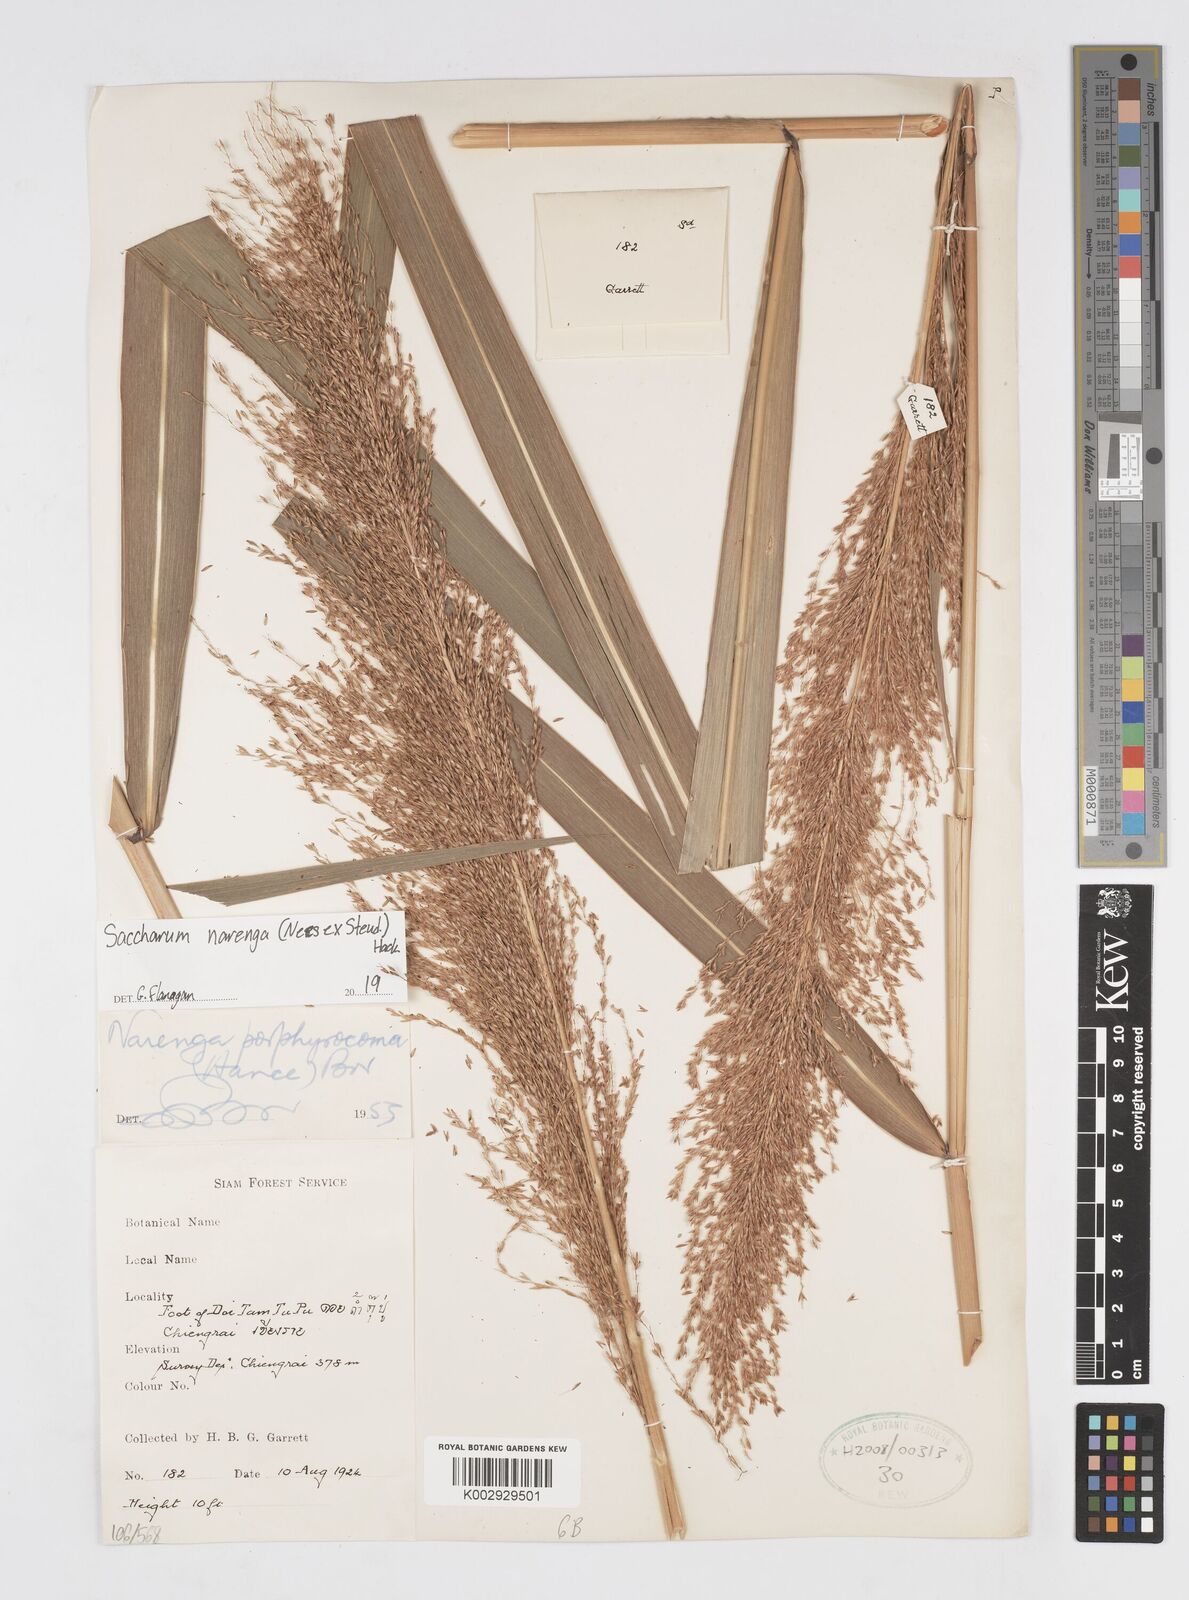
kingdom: Plantae
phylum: Tracheophyta
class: Liliopsida
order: Poales
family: Poaceae
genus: Narenga
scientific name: Narenga porphyrocoma
